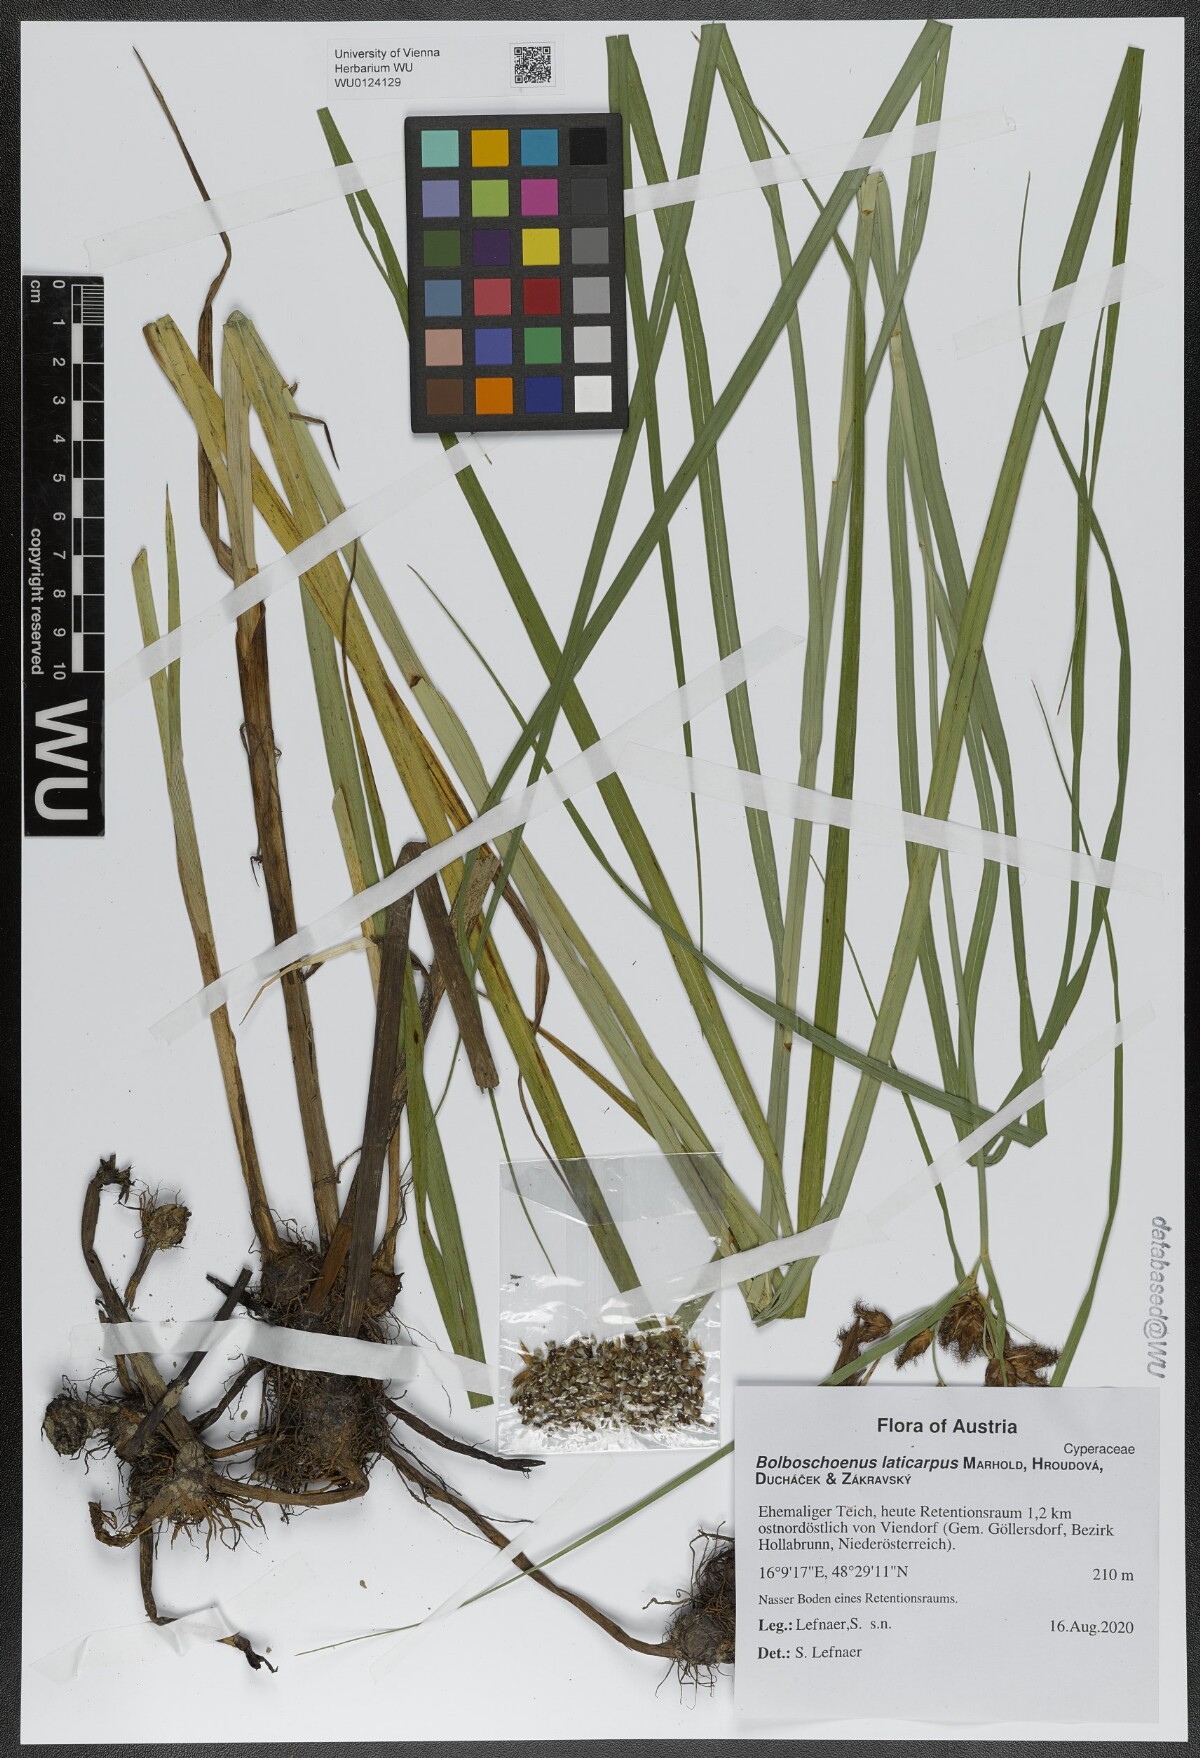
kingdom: Plantae
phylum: Tracheophyta
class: Liliopsida
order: Poales
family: Cyperaceae
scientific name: Cyperaceae
